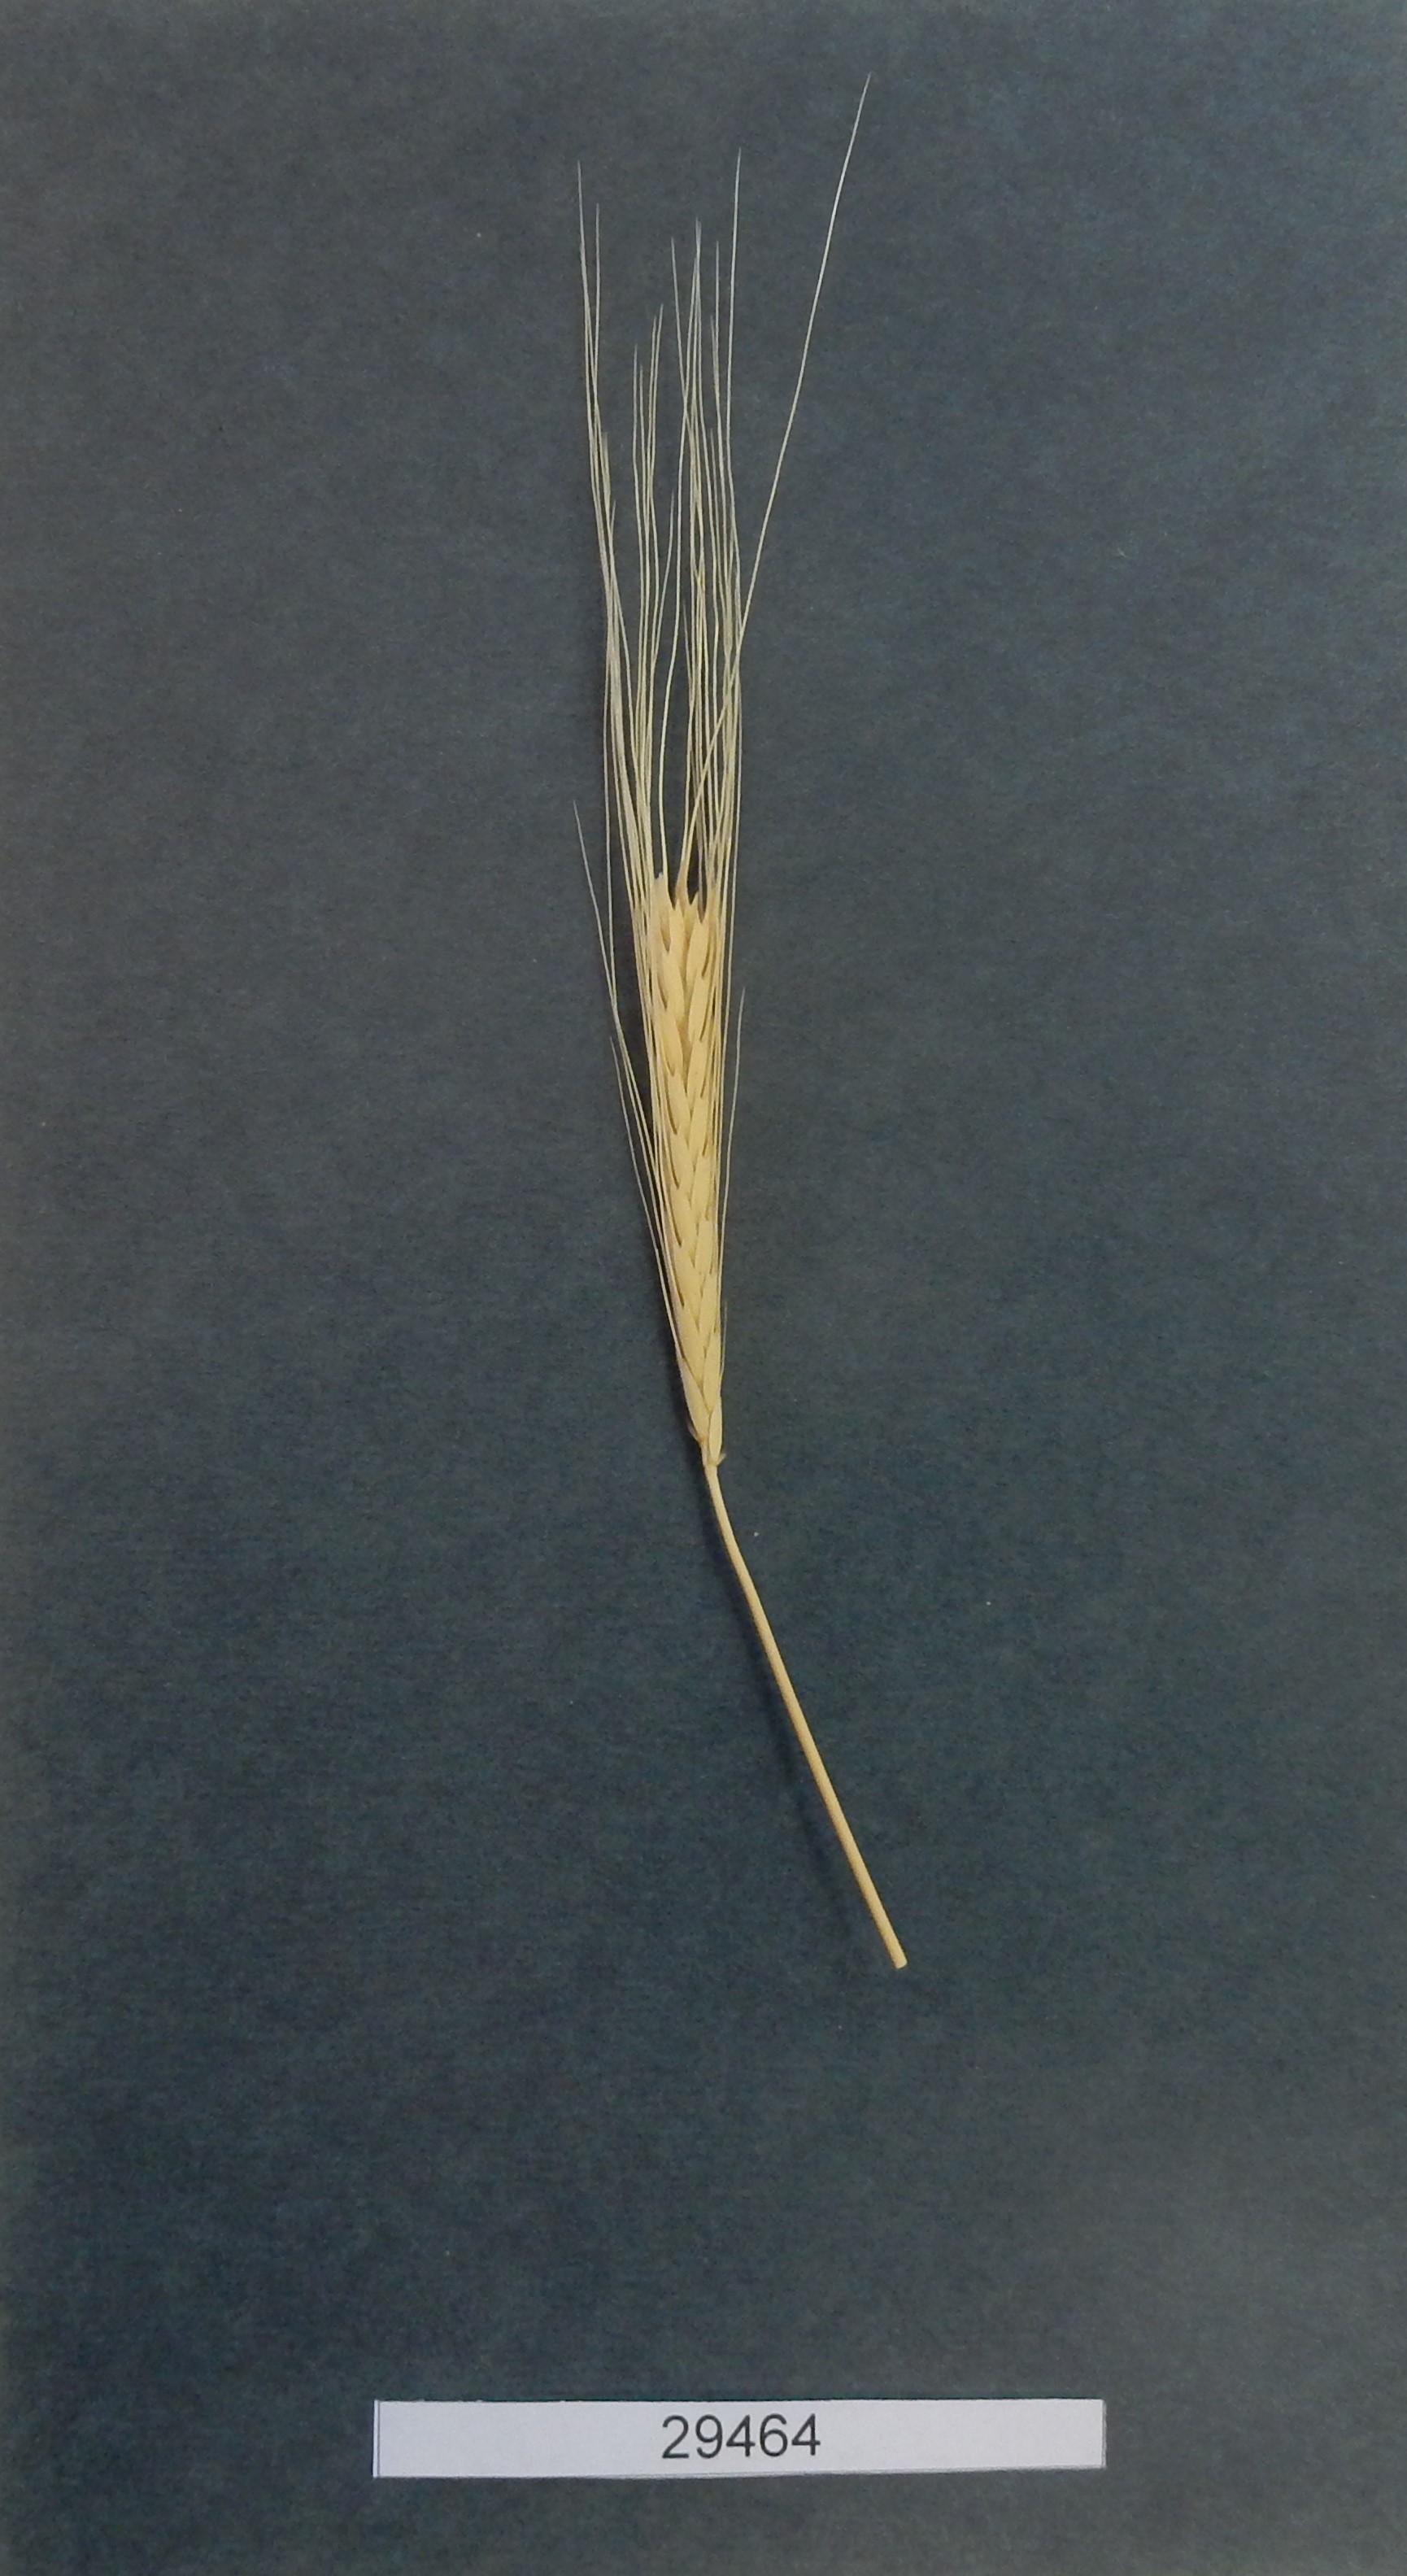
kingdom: Plantae
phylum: Tracheophyta
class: Liliopsida
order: Poales
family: Poaceae
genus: Triticum
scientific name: Triticum monococcum
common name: Wheat
